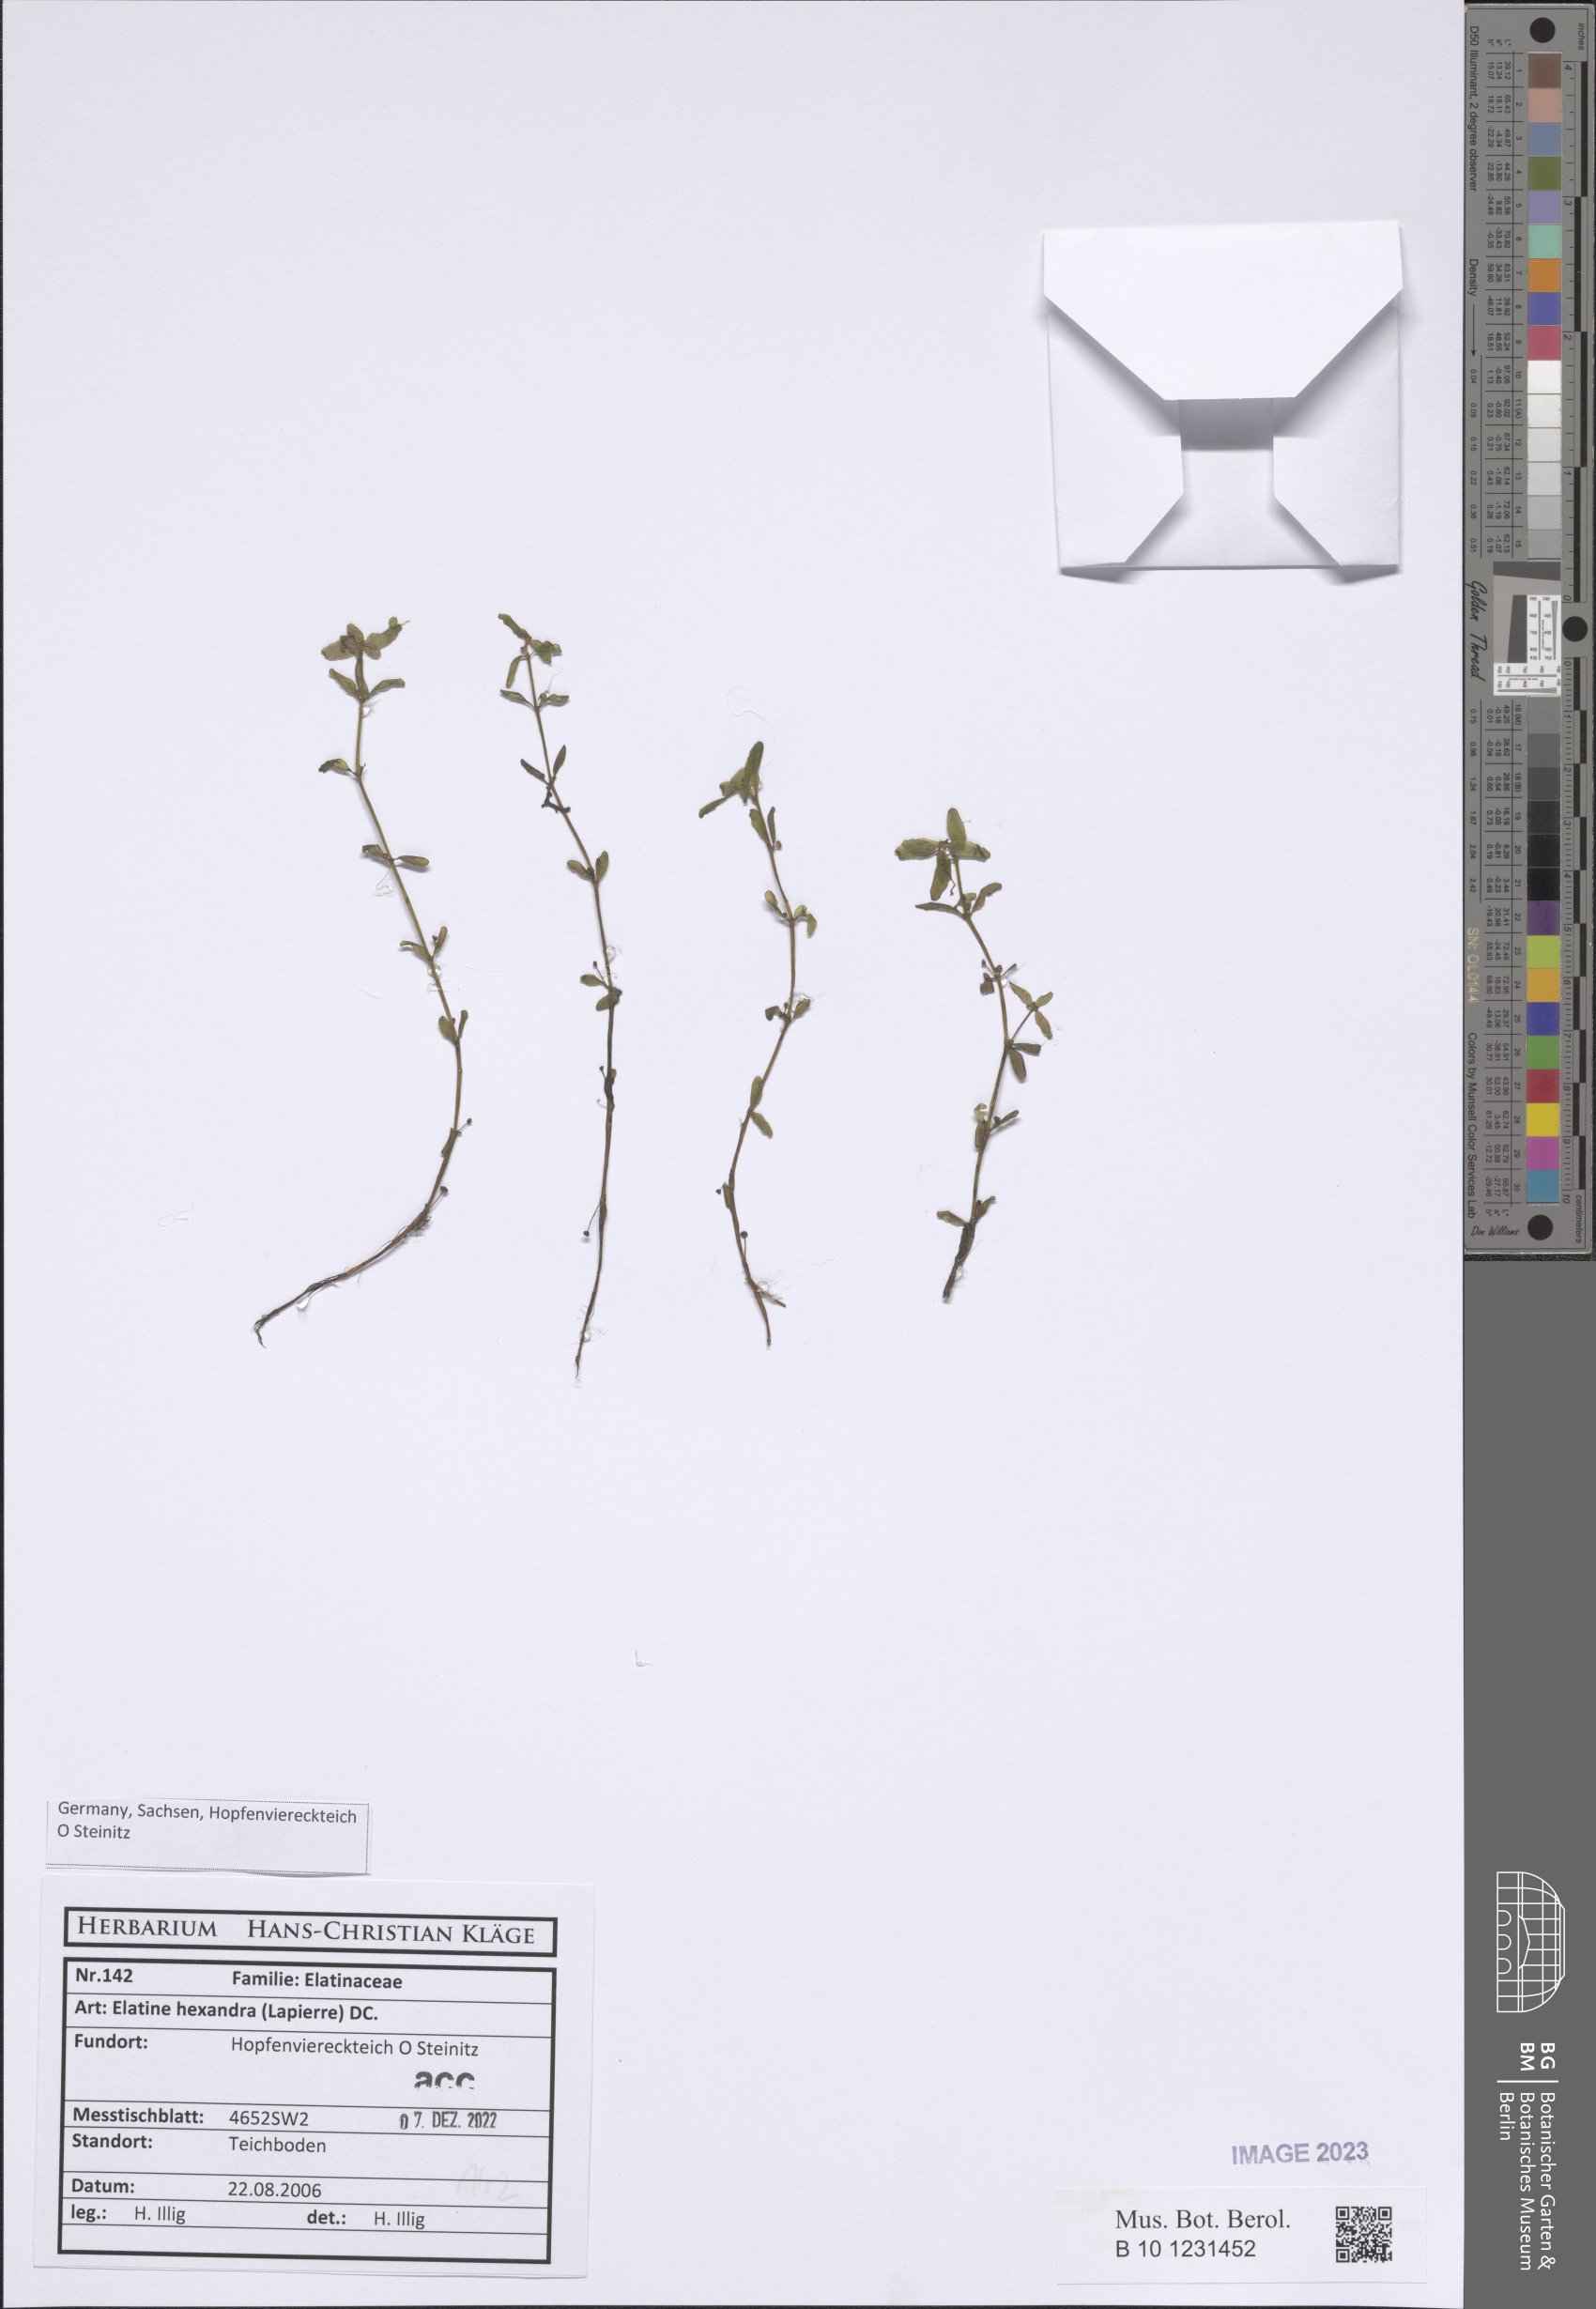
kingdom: Plantae
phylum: Tracheophyta
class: Magnoliopsida
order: Malpighiales
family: Elatinaceae
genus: Elatine
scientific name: Elatine hexandra
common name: Six-stamened waterwort
